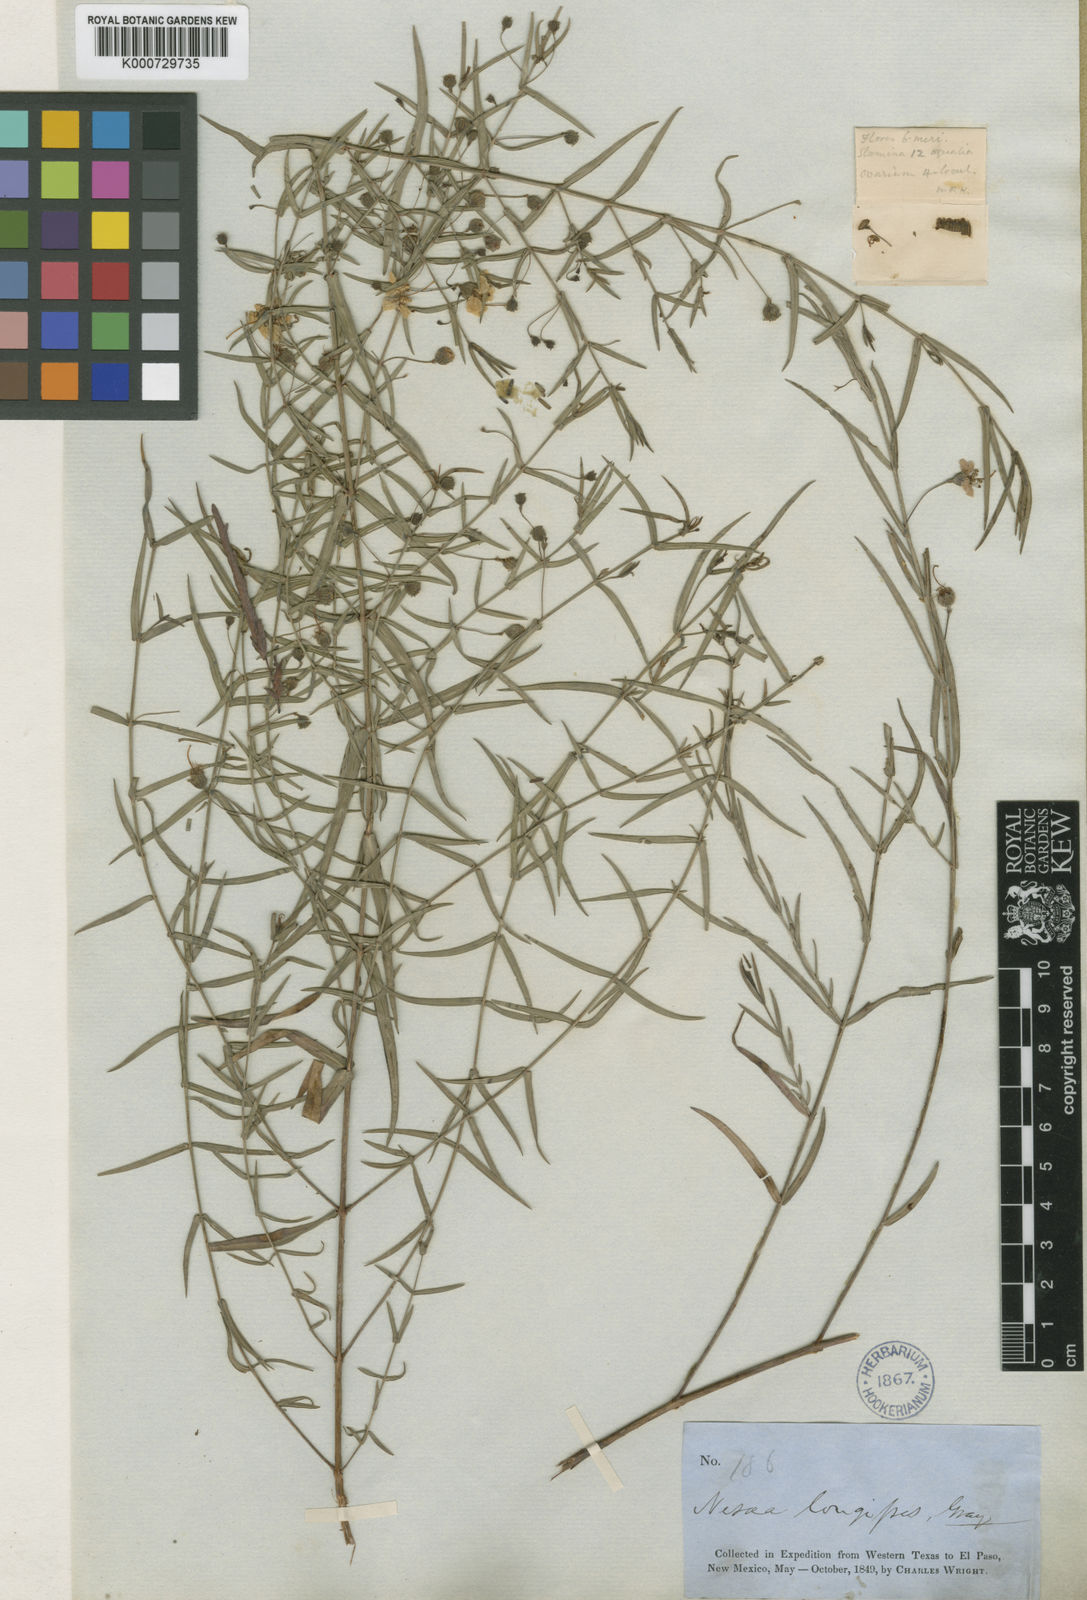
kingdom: Plantae
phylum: Tracheophyta
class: Magnoliopsida
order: Myrtales
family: Lythraceae
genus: Ammannia
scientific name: Ammannia grayi
